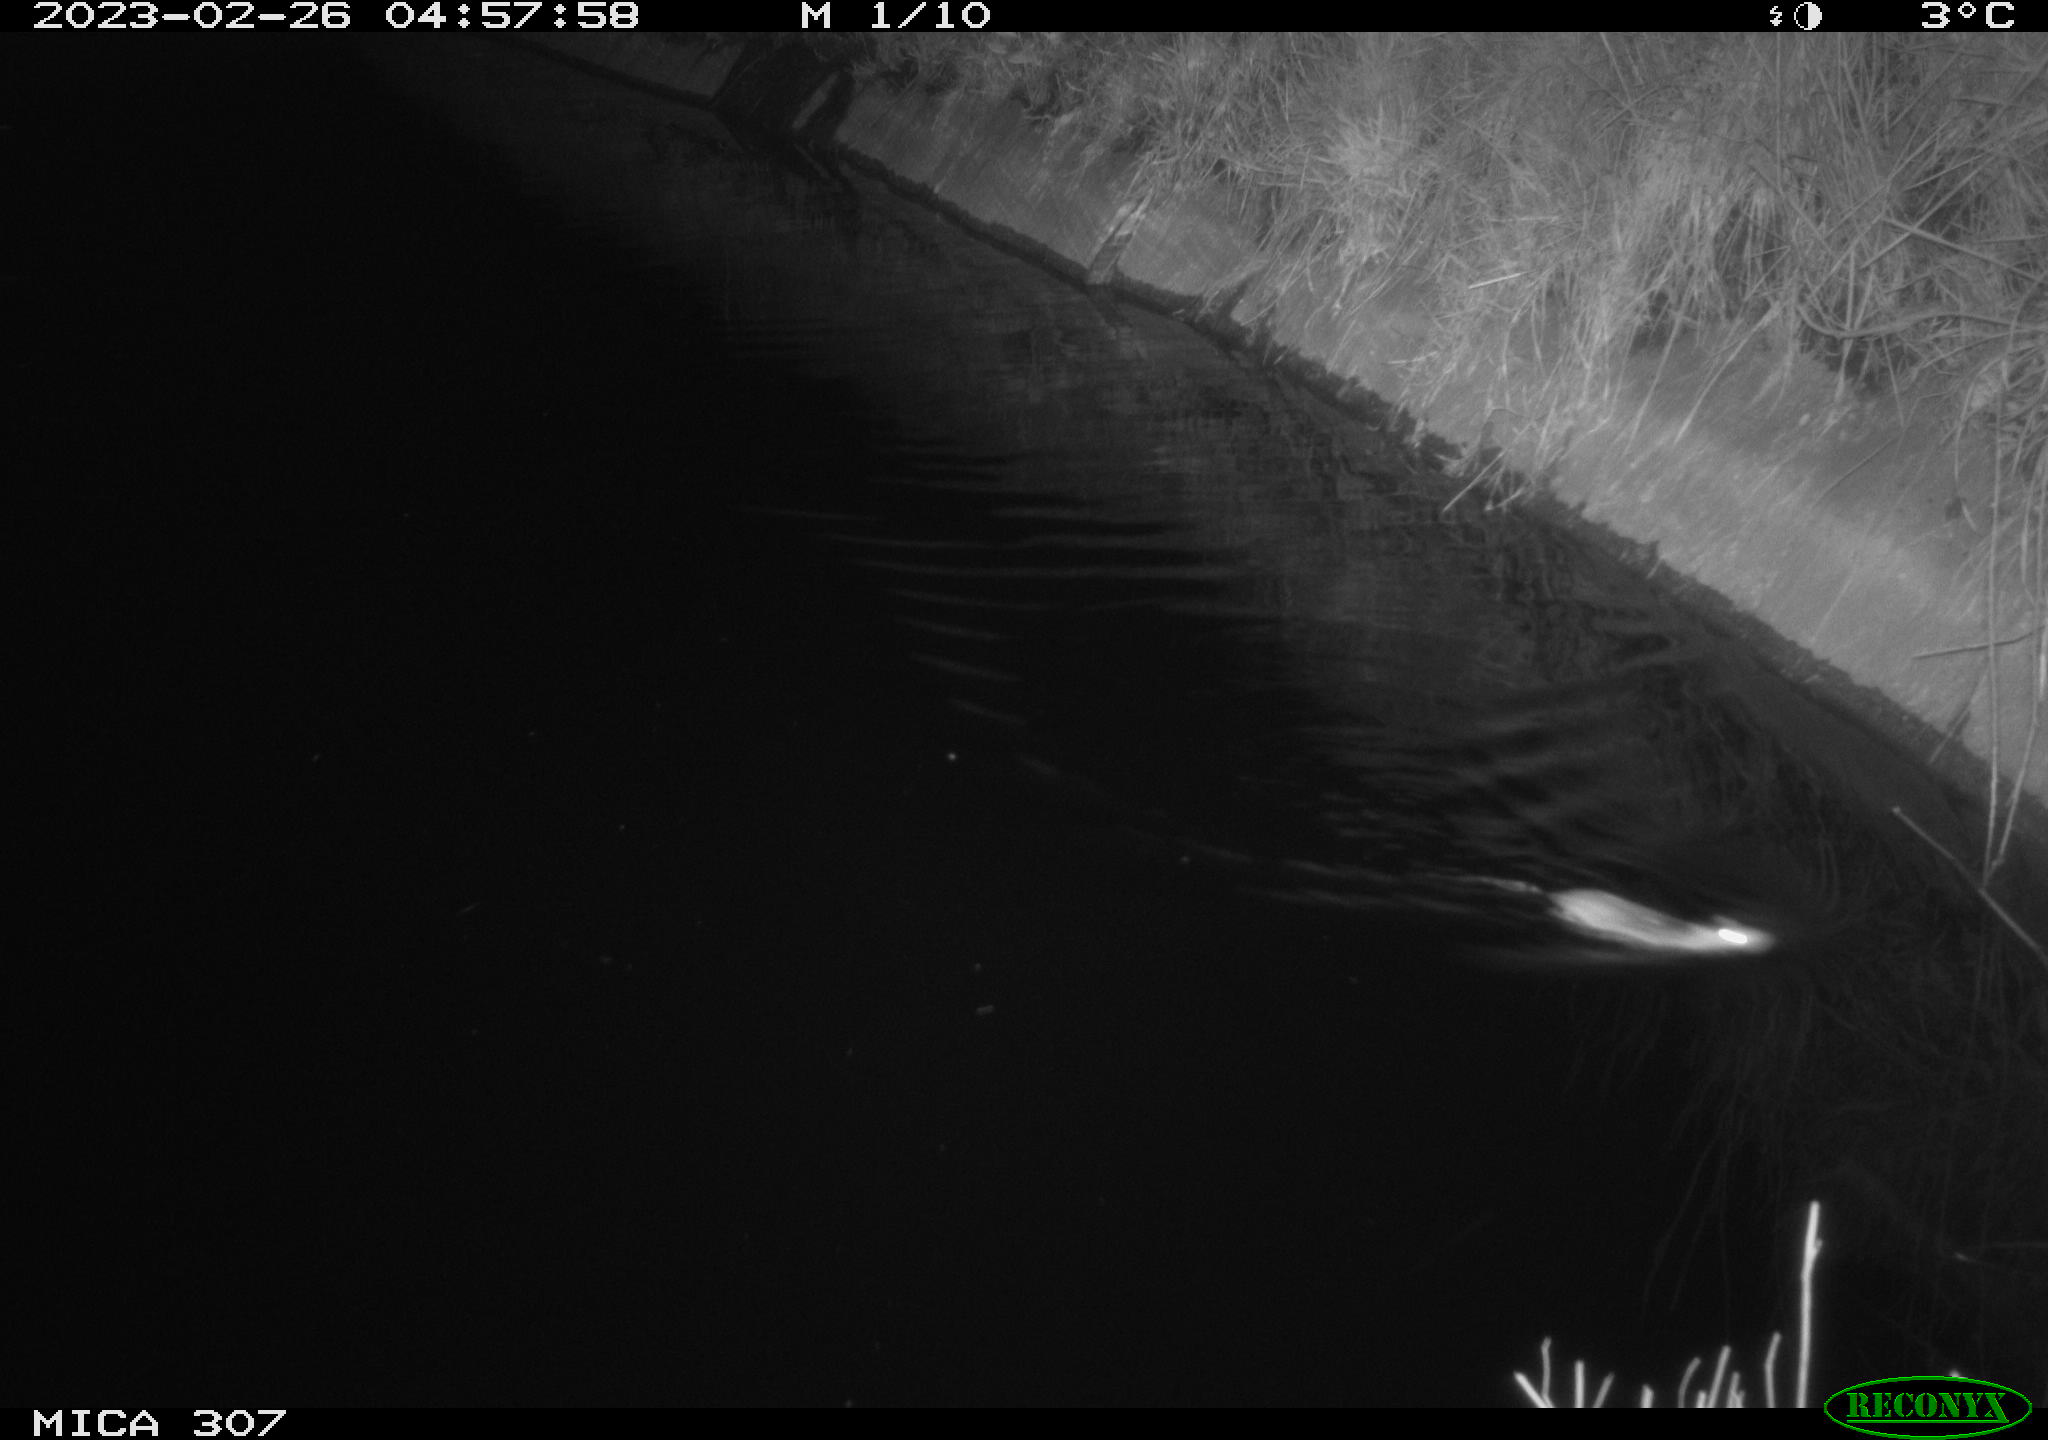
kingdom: Animalia
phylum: Chordata
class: Mammalia
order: Rodentia
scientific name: Rodentia
